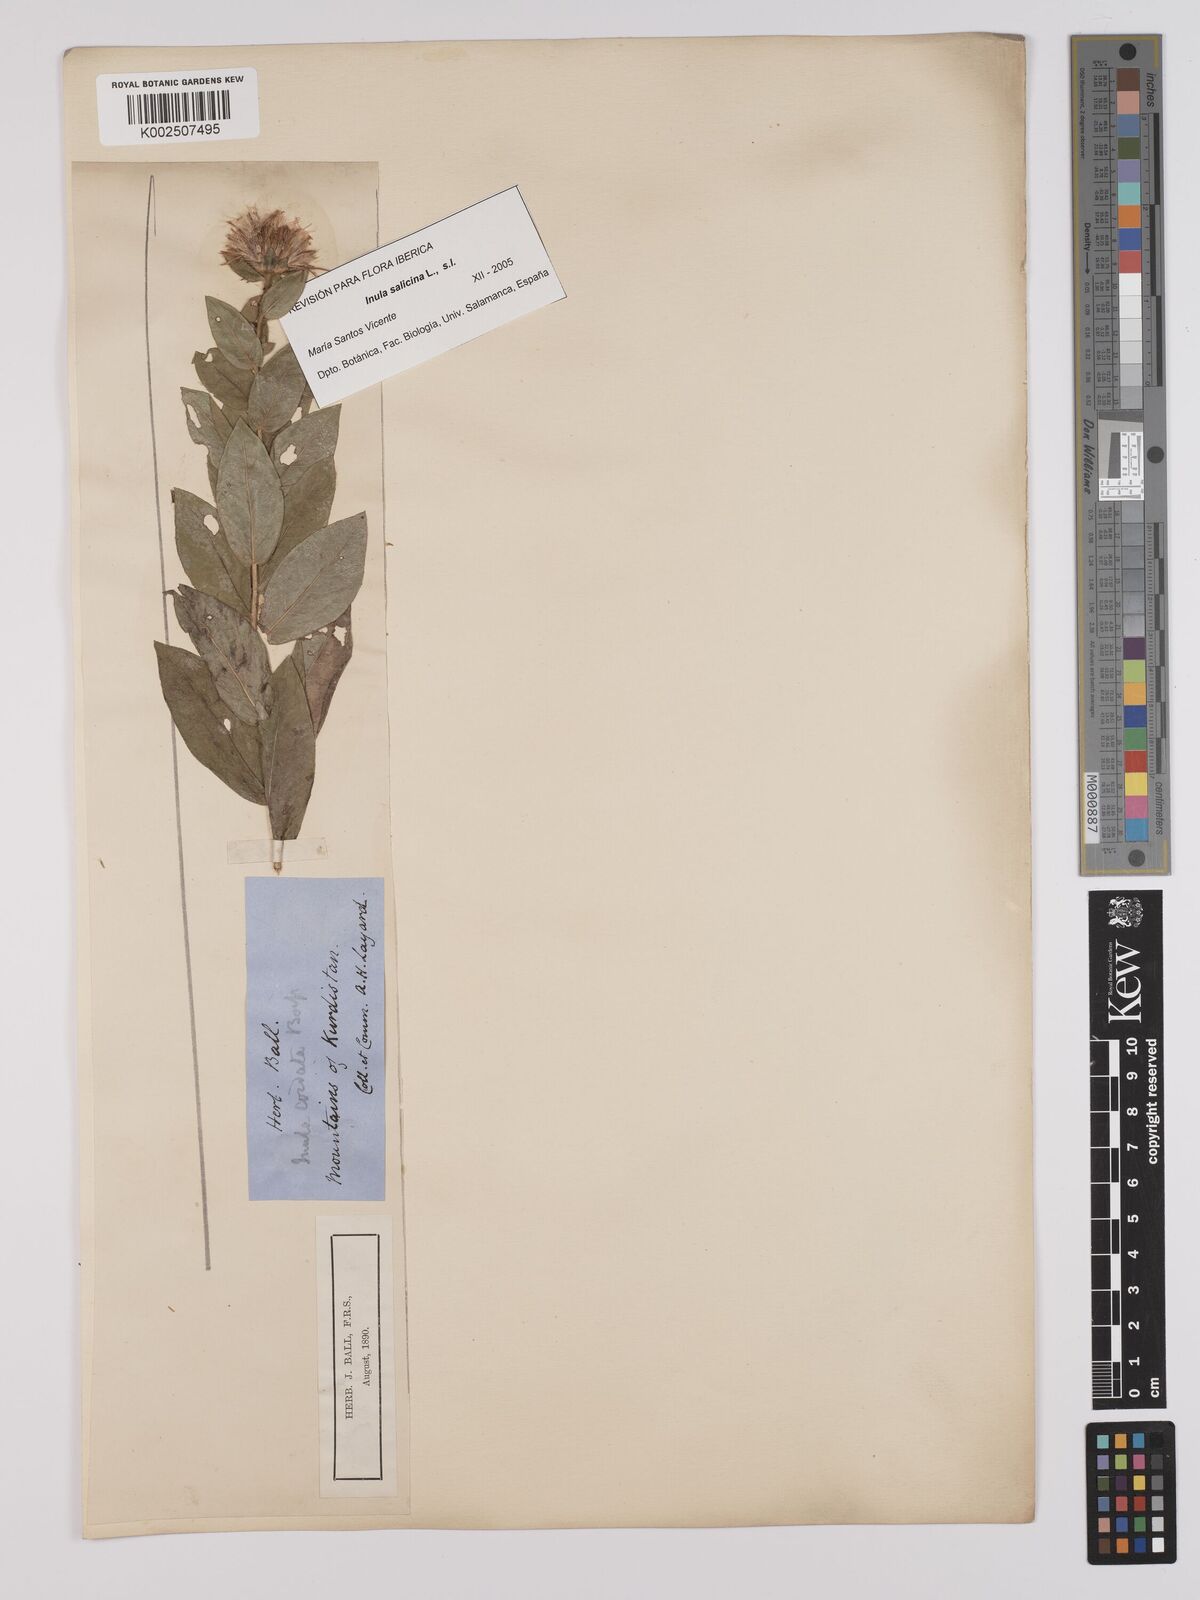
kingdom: Plantae
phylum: Tracheophyta
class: Magnoliopsida
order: Asterales
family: Asteraceae
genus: Pentanema
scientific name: Pentanema salicinum
